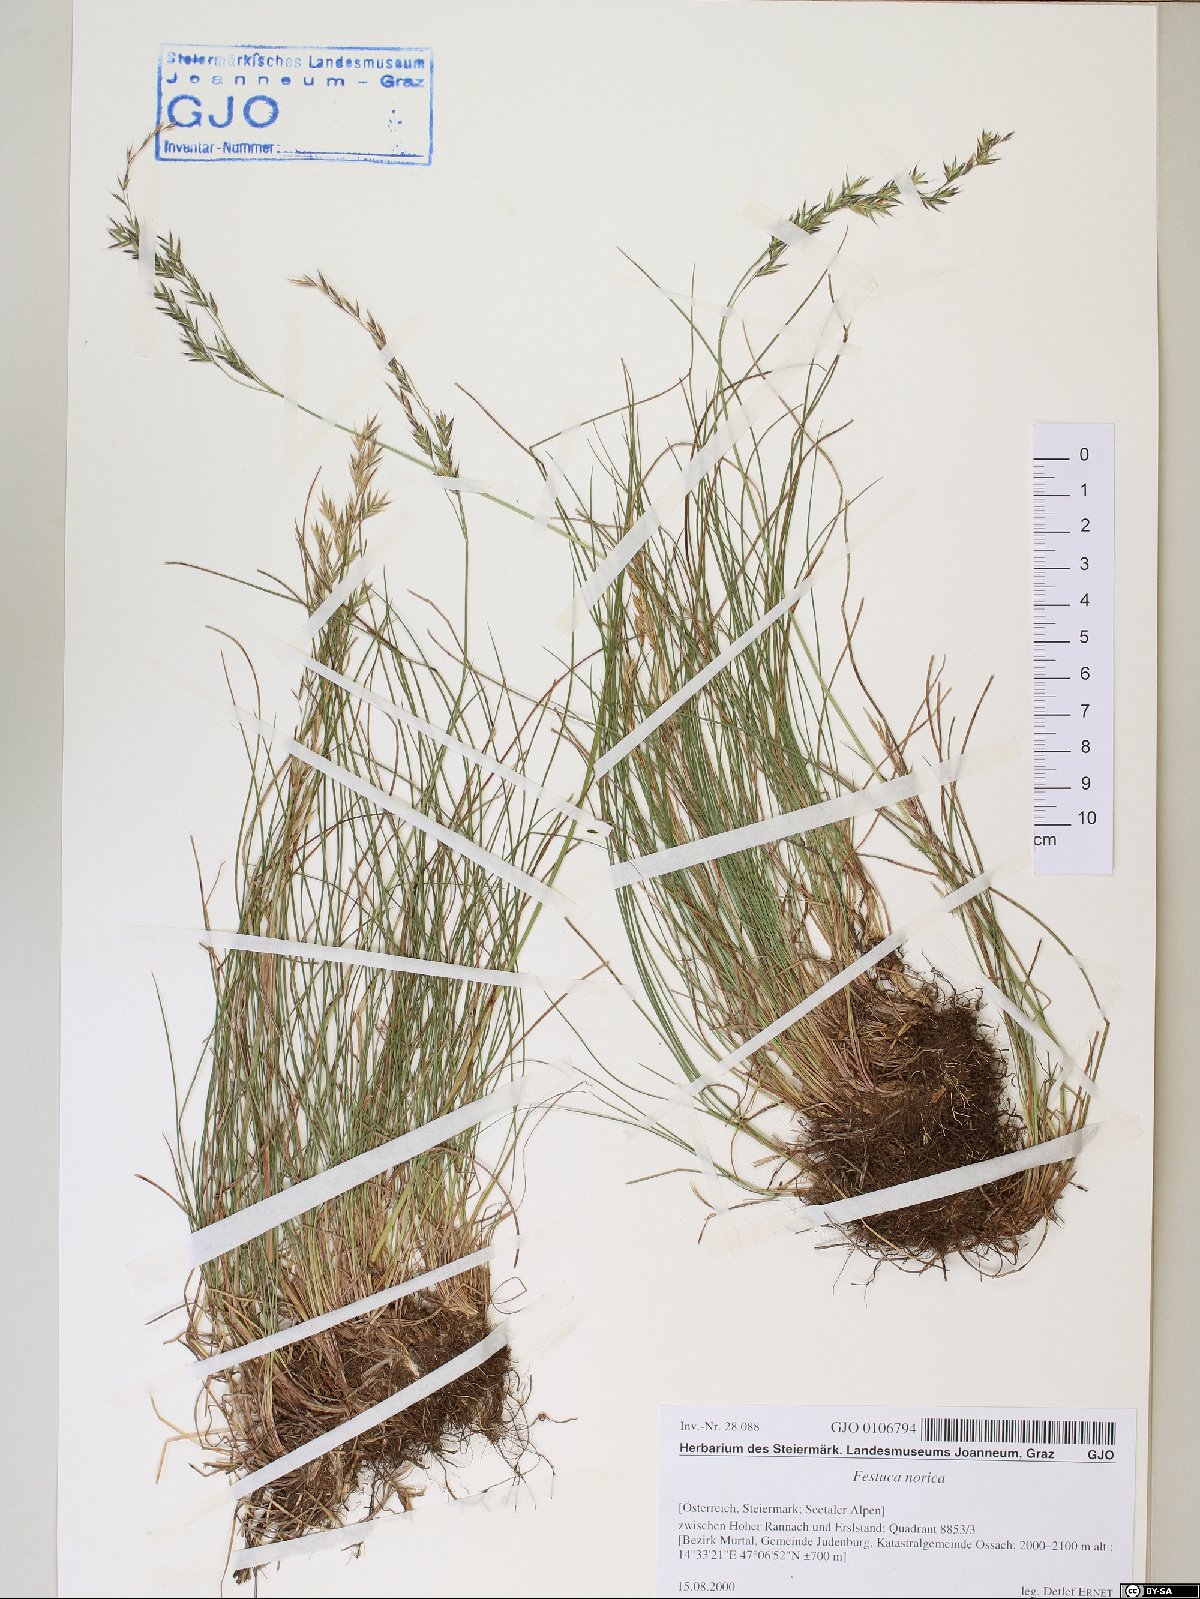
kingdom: Plantae
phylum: Tracheophyta
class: Liliopsida
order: Poales
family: Poaceae
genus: Festuca
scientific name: Festuca norica
